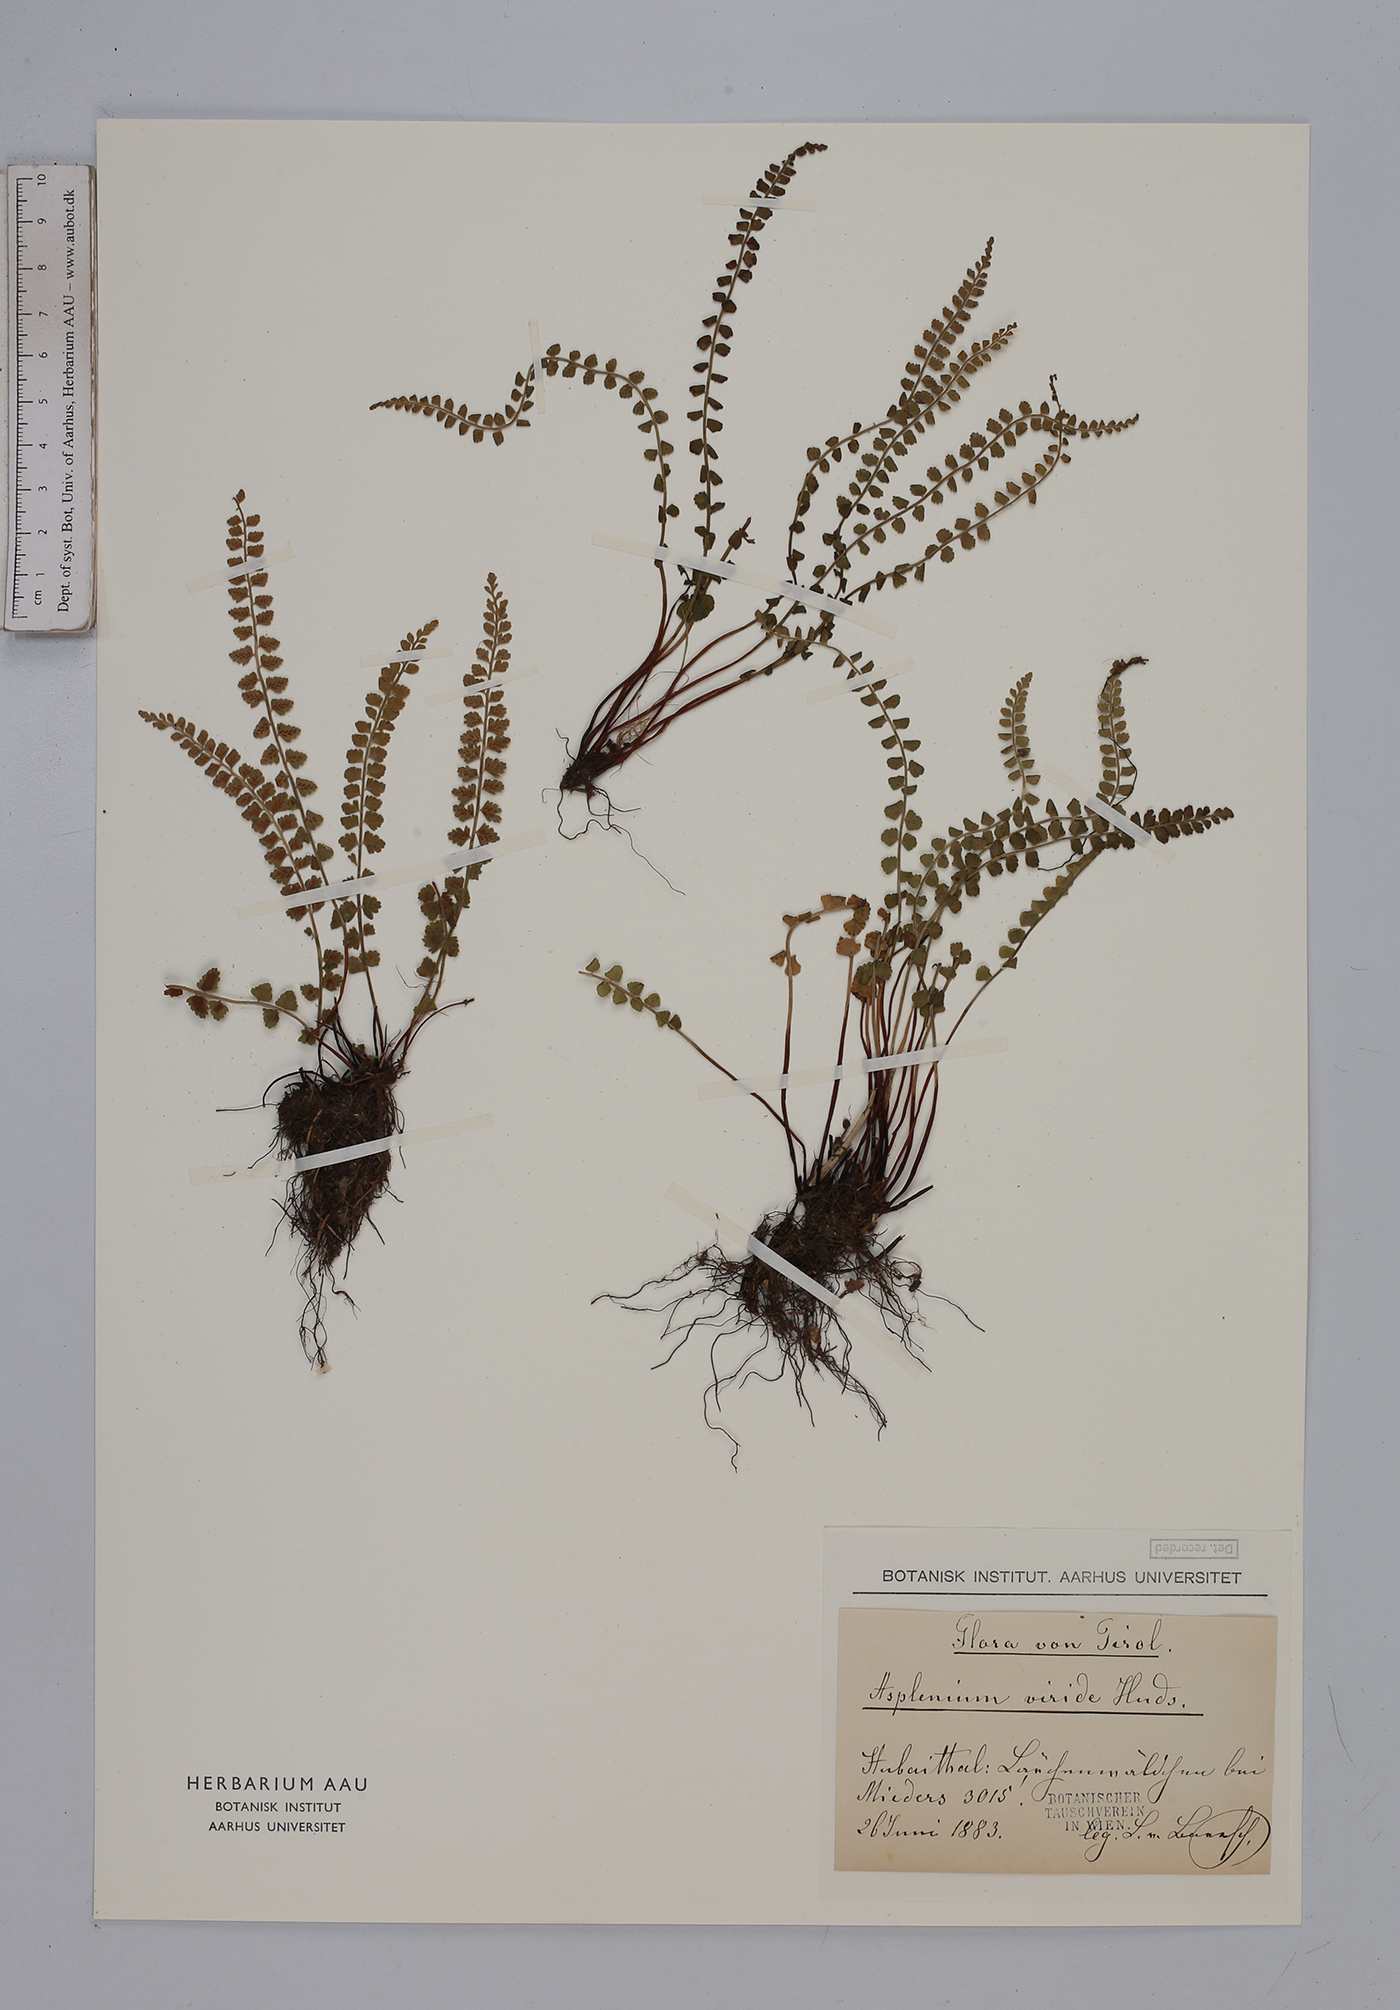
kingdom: Plantae
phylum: Tracheophyta
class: Polypodiopsida
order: Polypodiales
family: Aspleniaceae
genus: Asplenium
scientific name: Asplenium viride
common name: Green spleenwort
